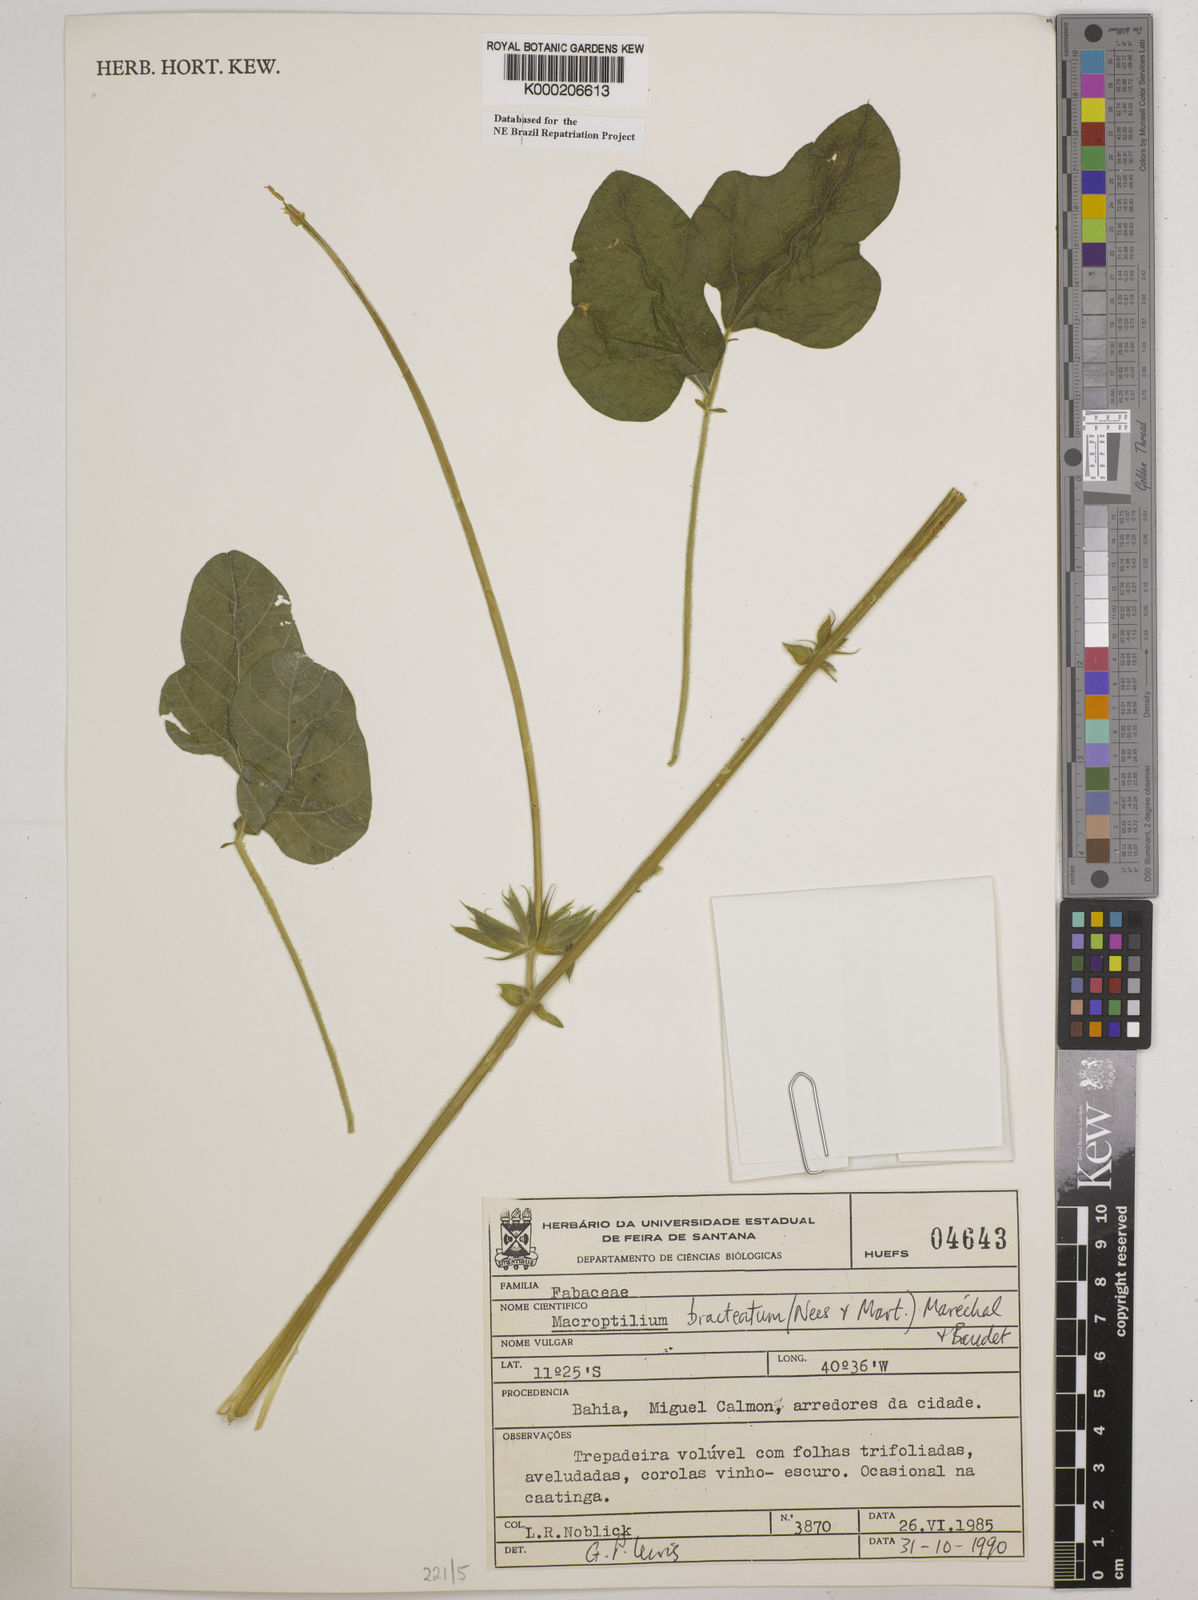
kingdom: Plantae
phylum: Tracheophyta
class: Magnoliopsida
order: Fabales
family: Fabaceae
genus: Macroptilium
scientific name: Macroptilium
